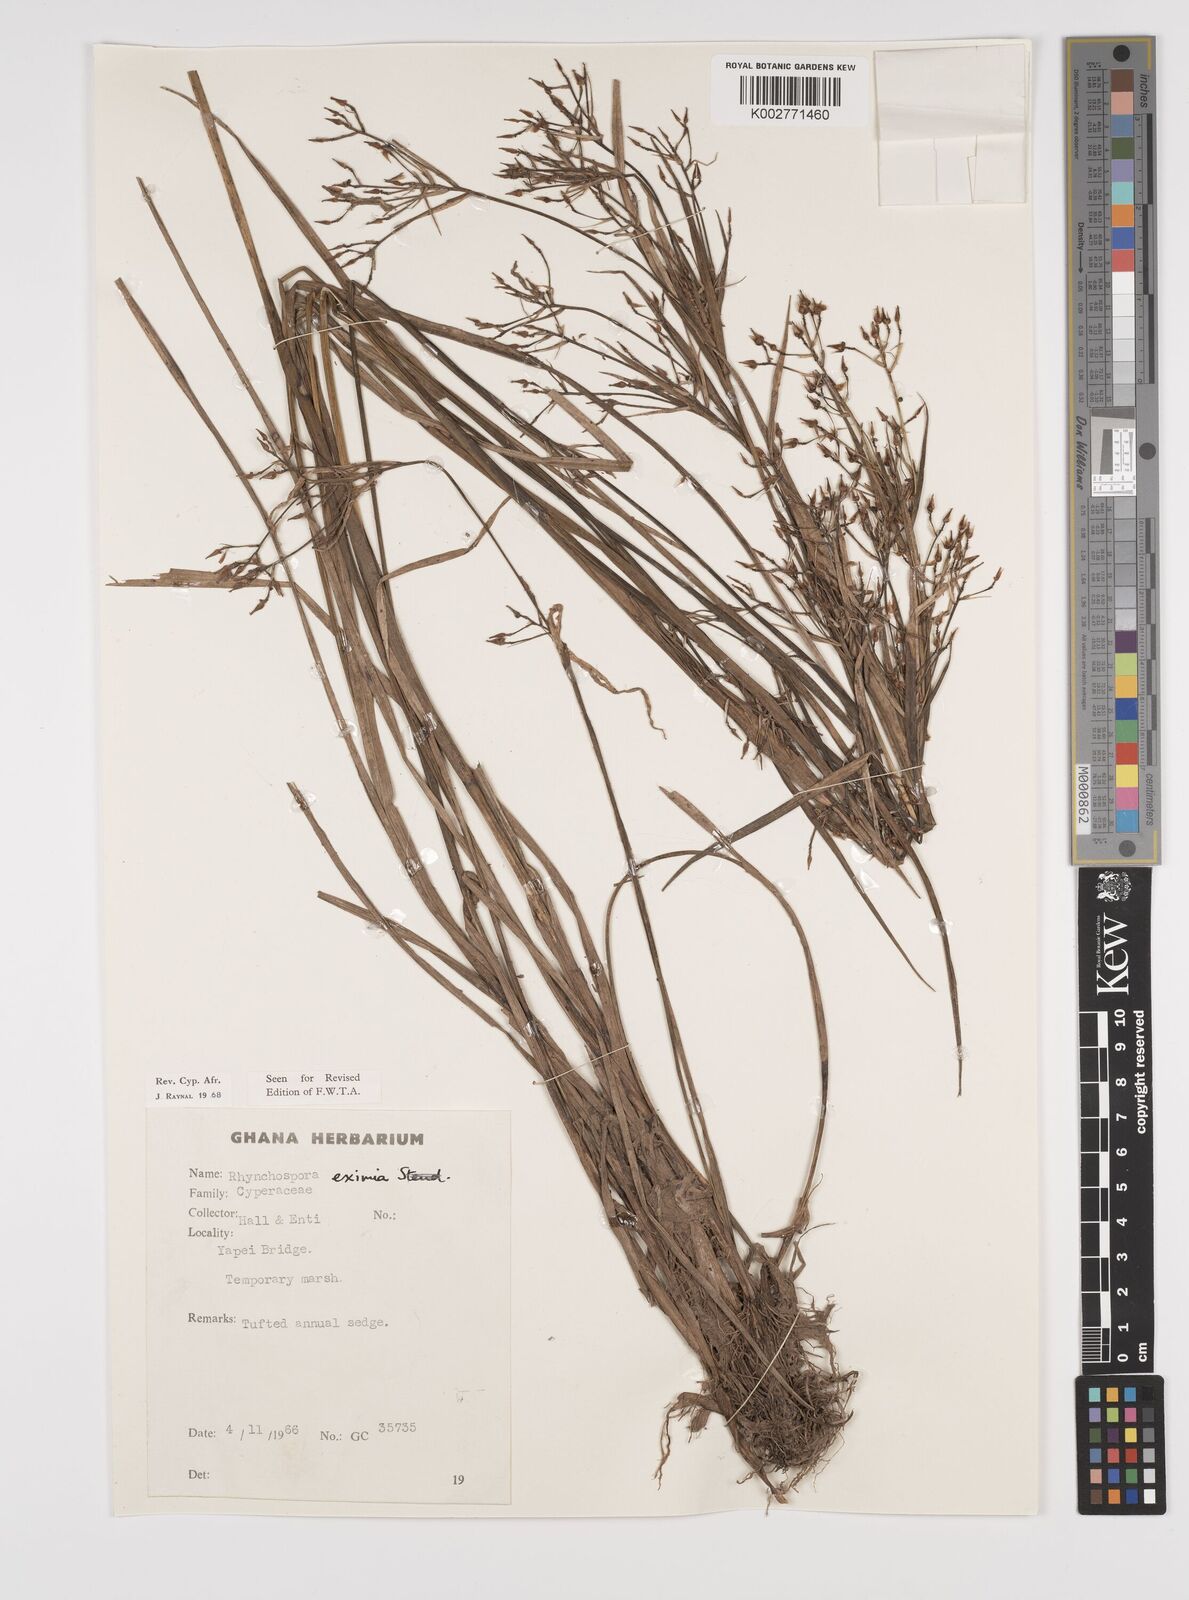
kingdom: Plantae
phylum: Tracheophyta
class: Liliopsida
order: Poales
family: Cyperaceae
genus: Rhynchospora
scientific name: Rhynchospora eximia
